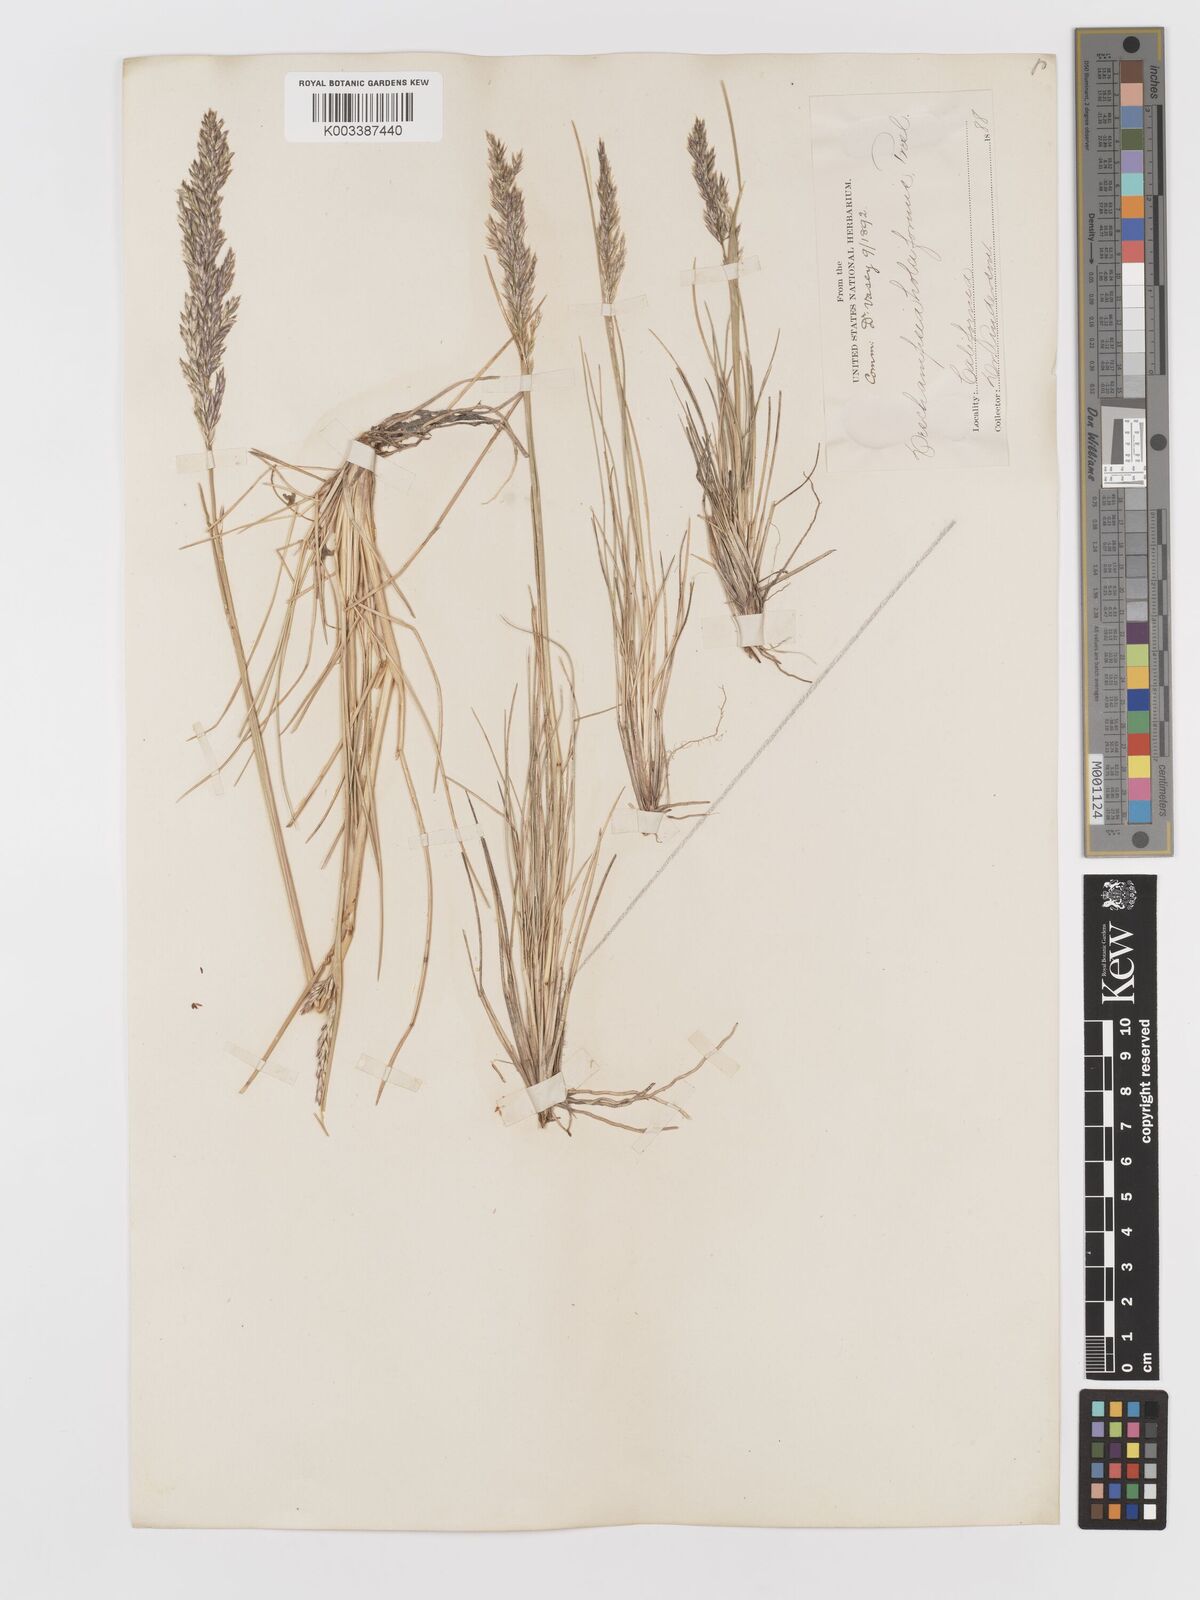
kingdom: Plantae
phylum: Tracheophyta
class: Liliopsida
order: Poales
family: Poaceae
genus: Deschampsia
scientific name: Deschampsia cespitosa
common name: Tufted hair-grass
